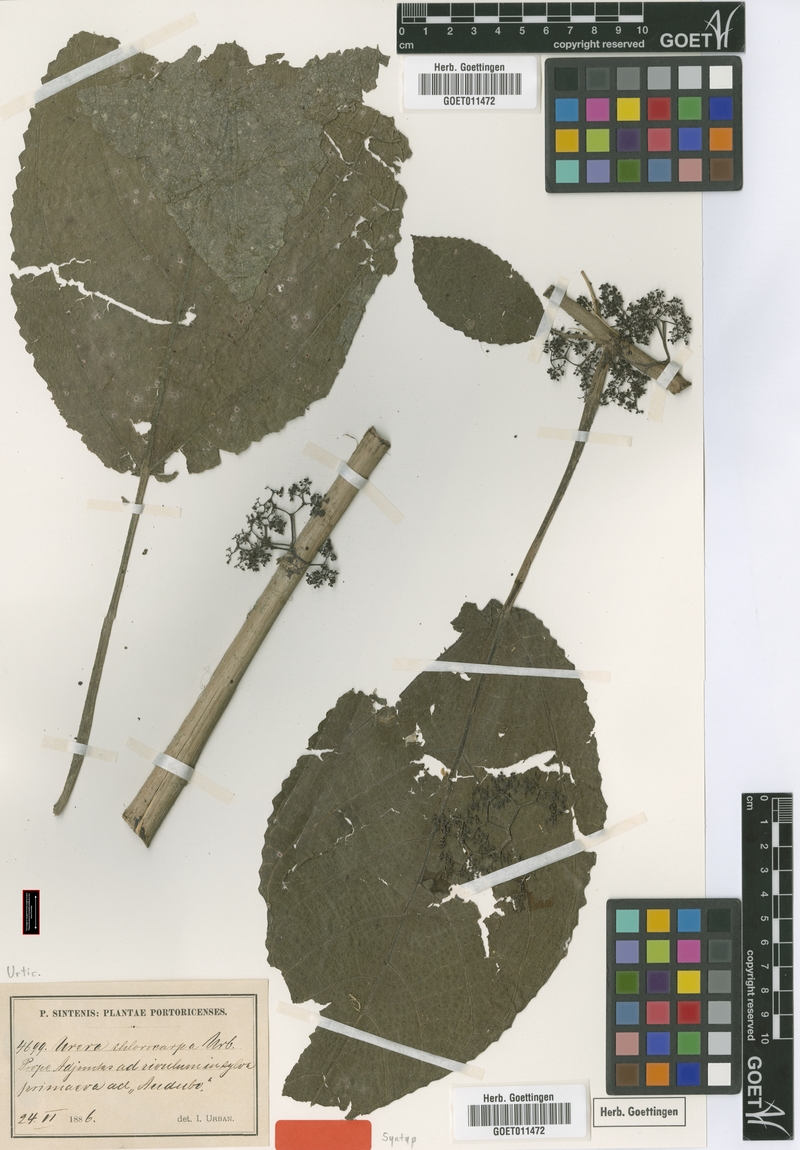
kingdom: Plantae
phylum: Tracheophyta
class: Magnoliopsida
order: Rosales
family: Urticaceae
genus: Urera
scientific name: Urera chlorocarpa
